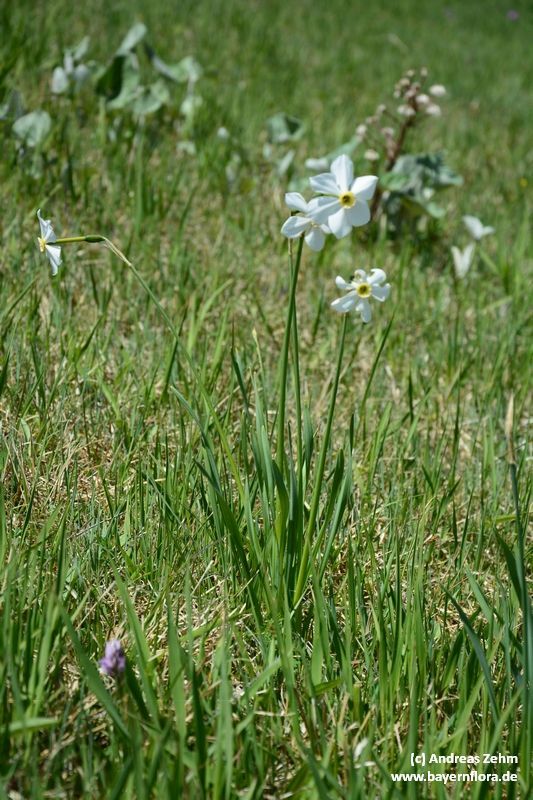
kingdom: Plantae
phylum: Tracheophyta
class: Liliopsida
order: Asparagales
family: Amaryllidaceae
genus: Narcissus
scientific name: Narcissus
